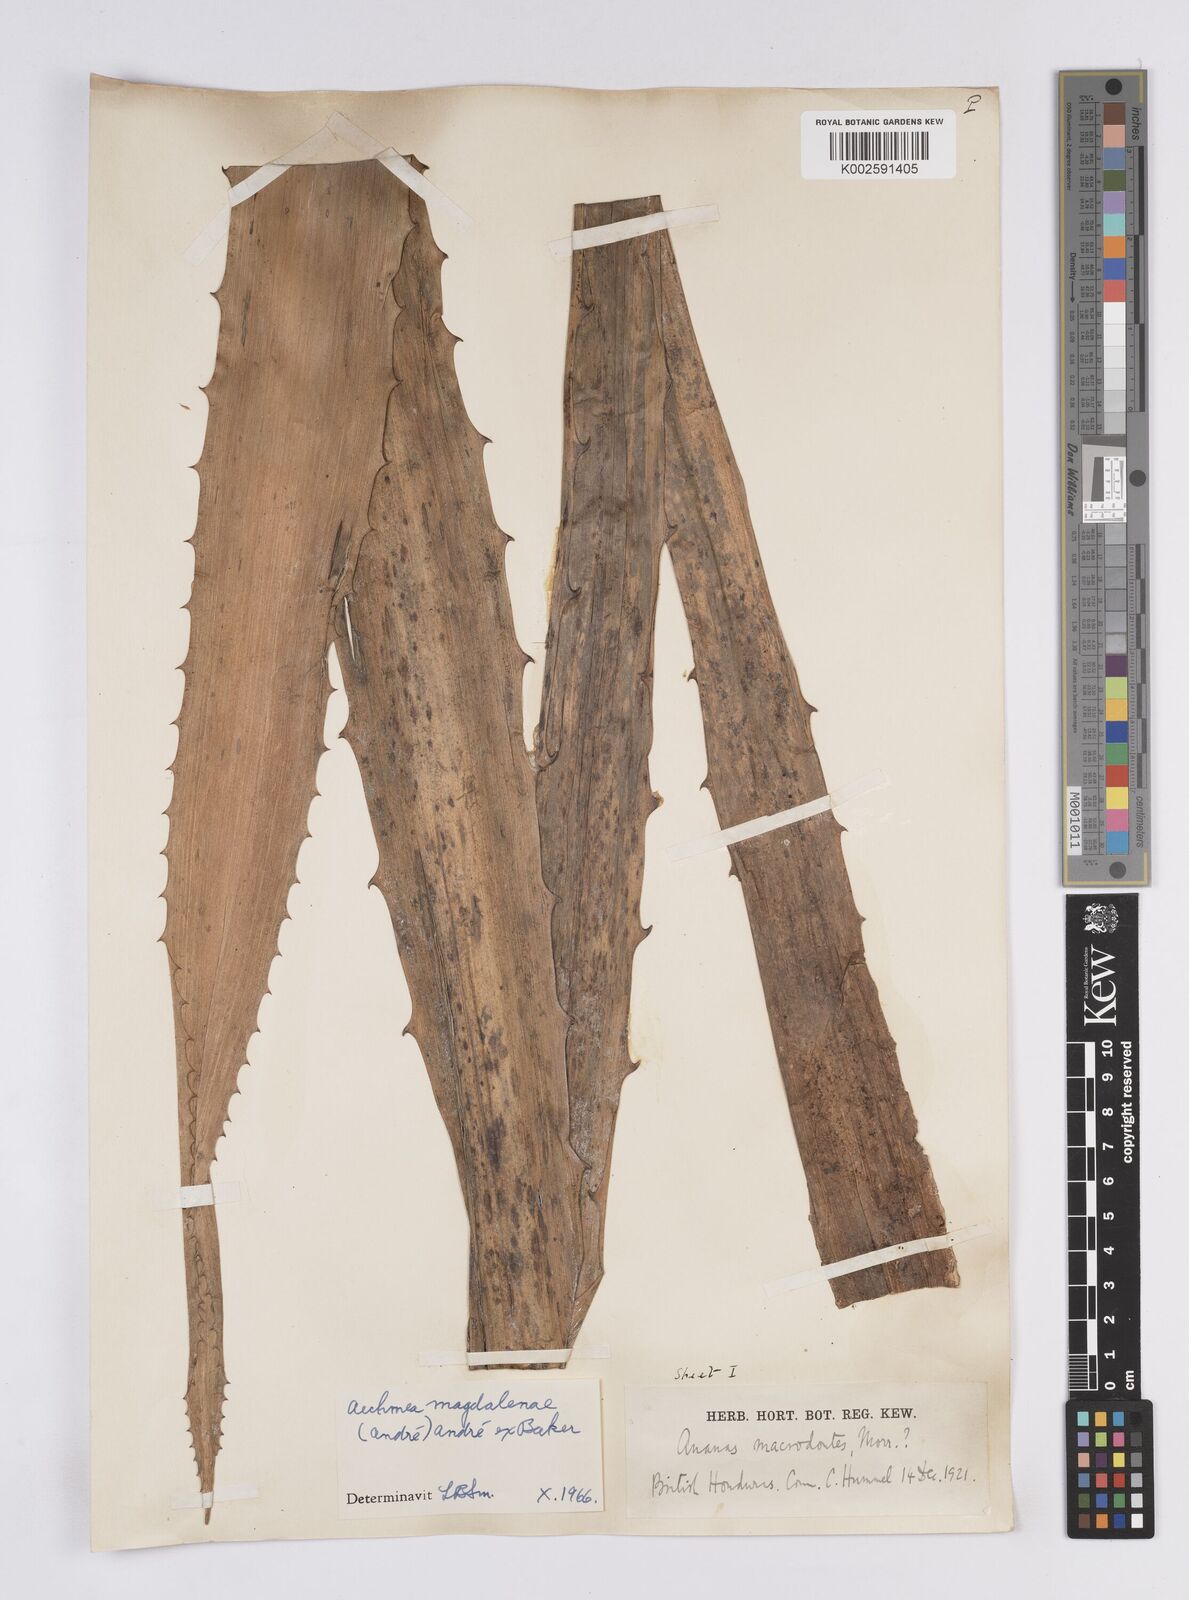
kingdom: Plantae
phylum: Tracheophyta
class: Liliopsida
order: Poales
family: Bromeliaceae
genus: Aechmea
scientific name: Aechmea magdalenae
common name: Arghan
